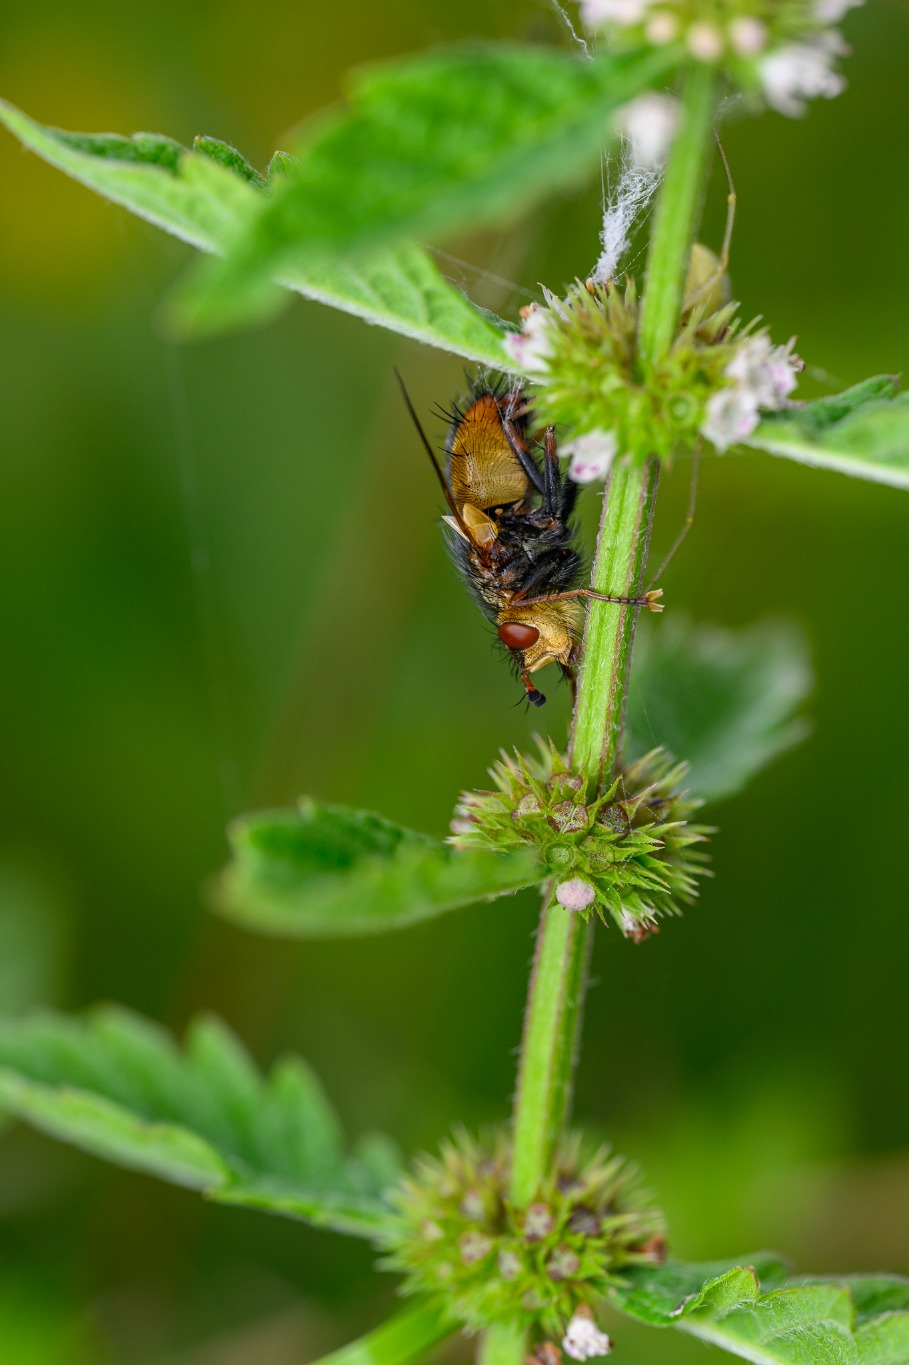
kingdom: Animalia
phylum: Arthropoda
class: Insecta
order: Diptera
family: Tachinidae
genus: Tachina
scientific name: Tachina fera
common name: Mellemfluen oskar
